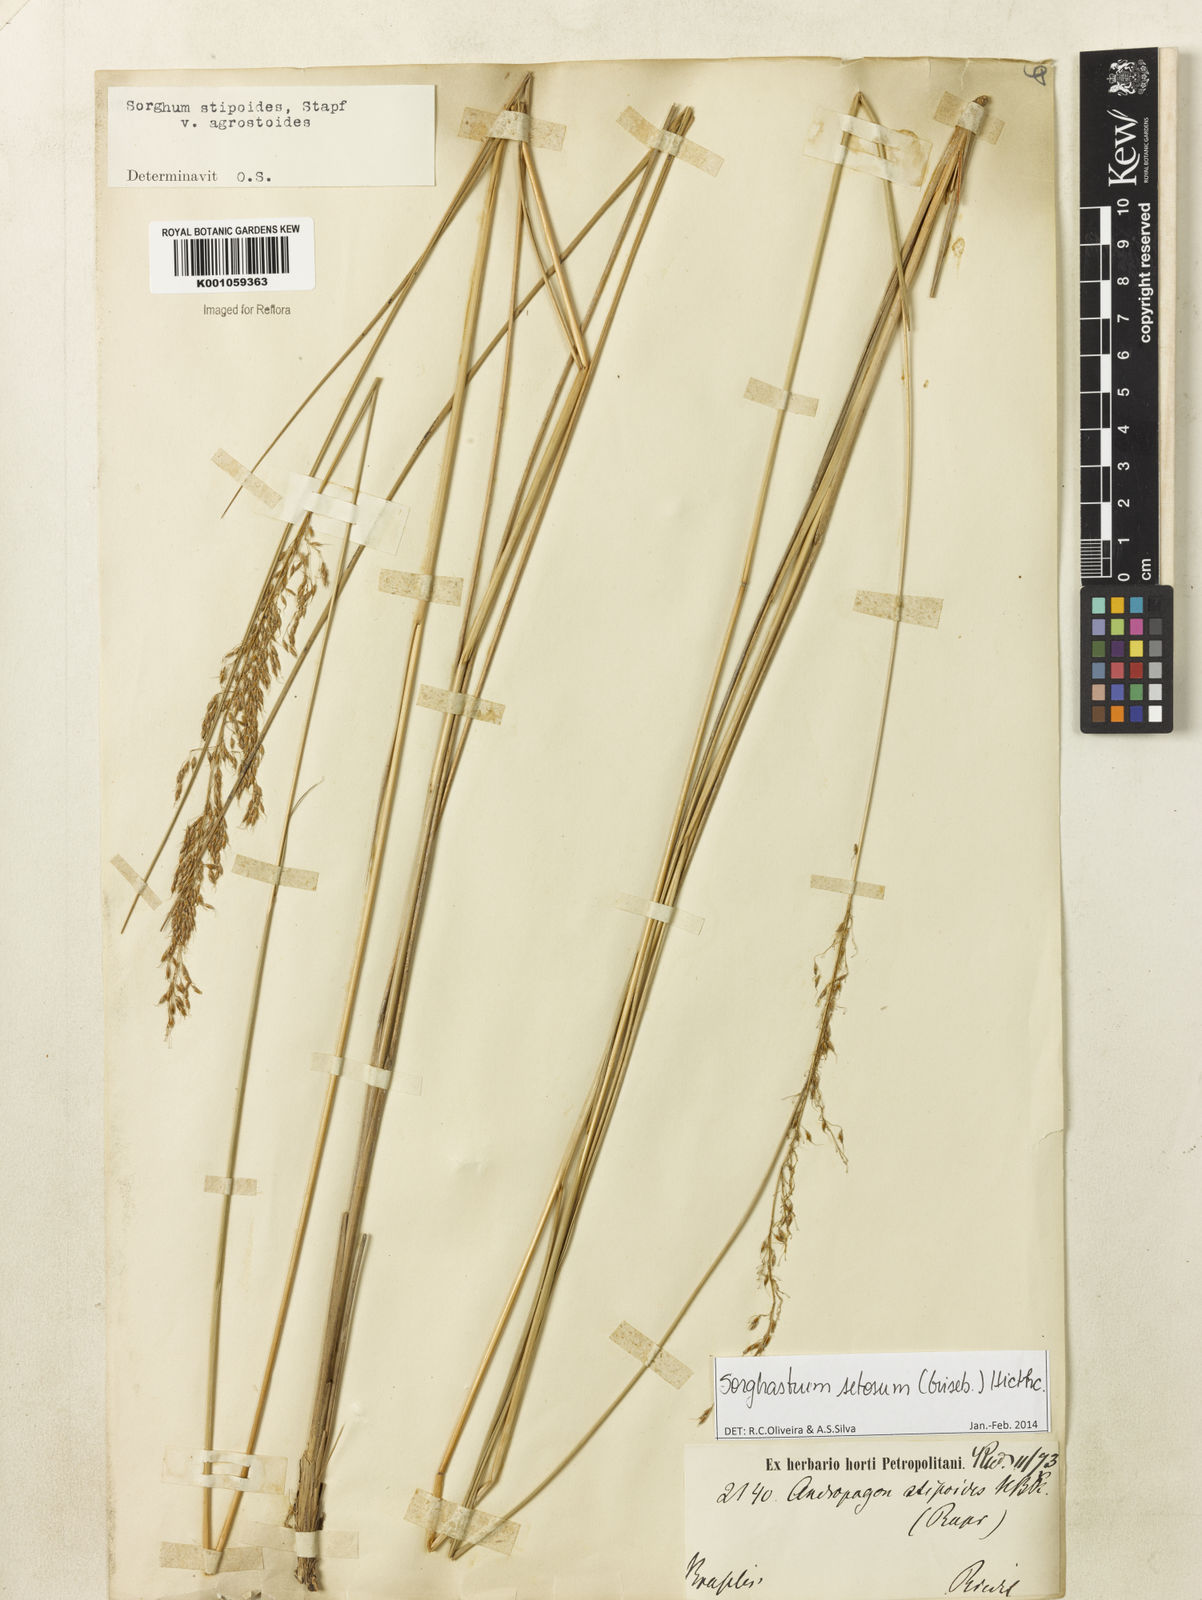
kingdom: Plantae
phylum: Tracheophyta
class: Liliopsida
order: Poales
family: Poaceae
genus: Sorghastrum
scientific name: Sorghastrum setosum
